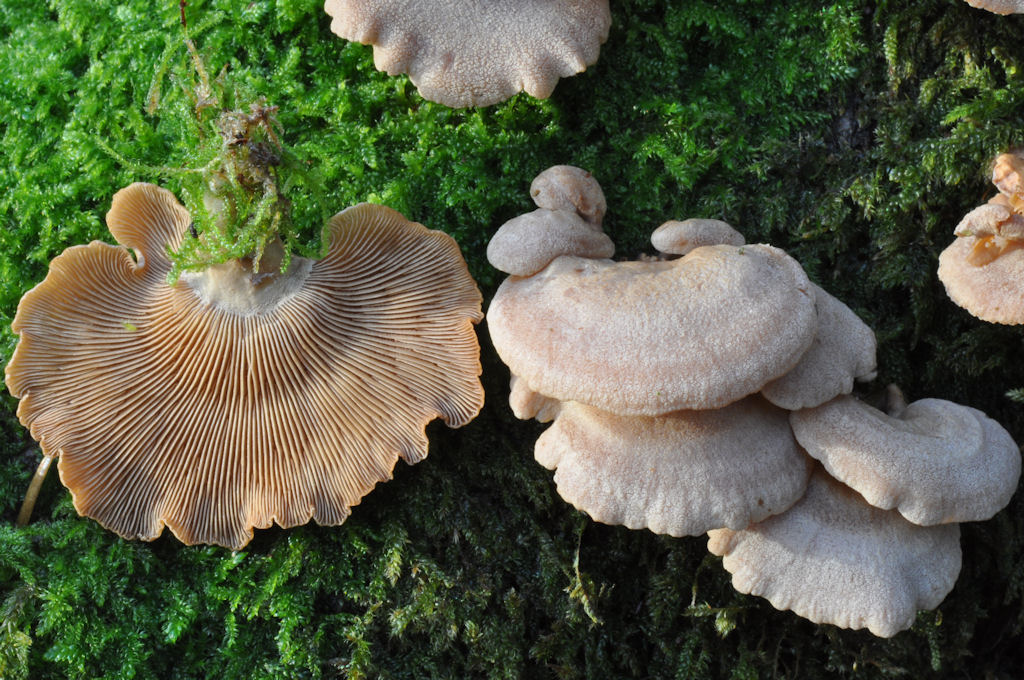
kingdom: Fungi
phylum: Basidiomycota
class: Agaricomycetes
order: Agaricales
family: Mycenaceae
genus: Panellus
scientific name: Panellus stipticus
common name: kliddet epaulethat
